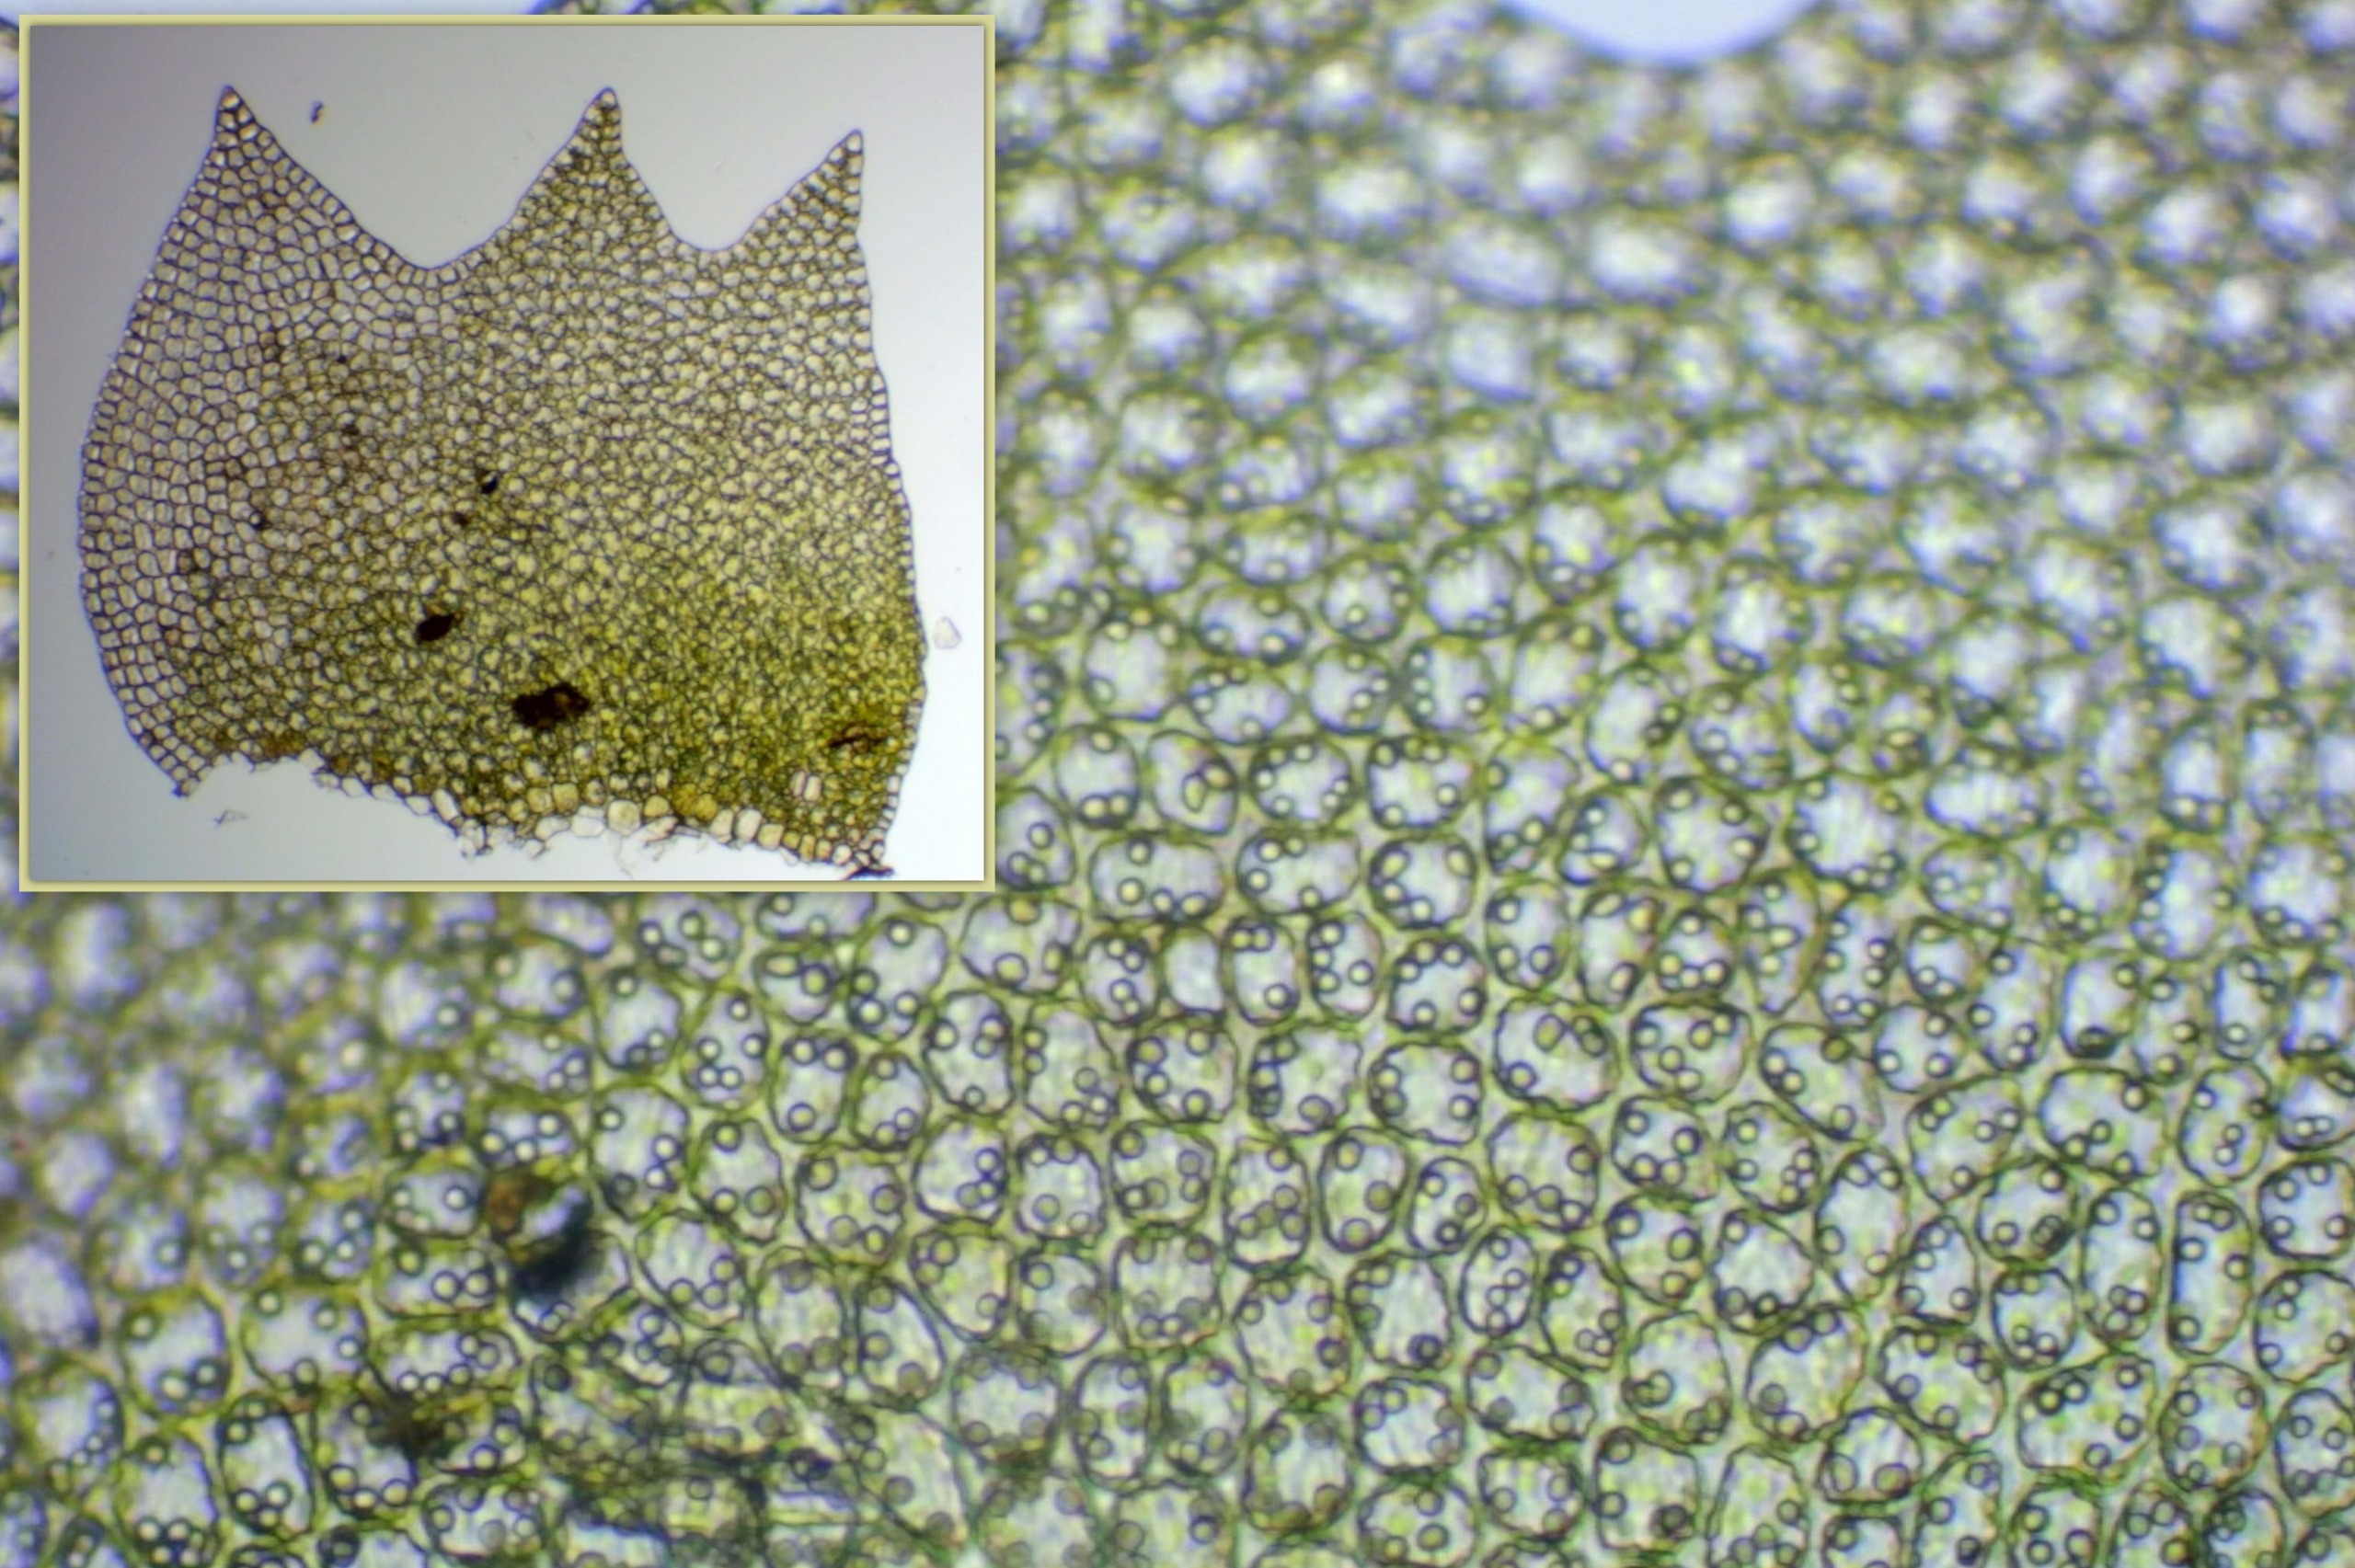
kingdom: Plantae
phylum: Marchantiophyta
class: Jungermanniopsida
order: Jungermanniales
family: Anastrophyllaceae
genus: Neoorthocaulis
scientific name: Neoorthocaulis attenuatus
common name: Tynd flerfligmos
